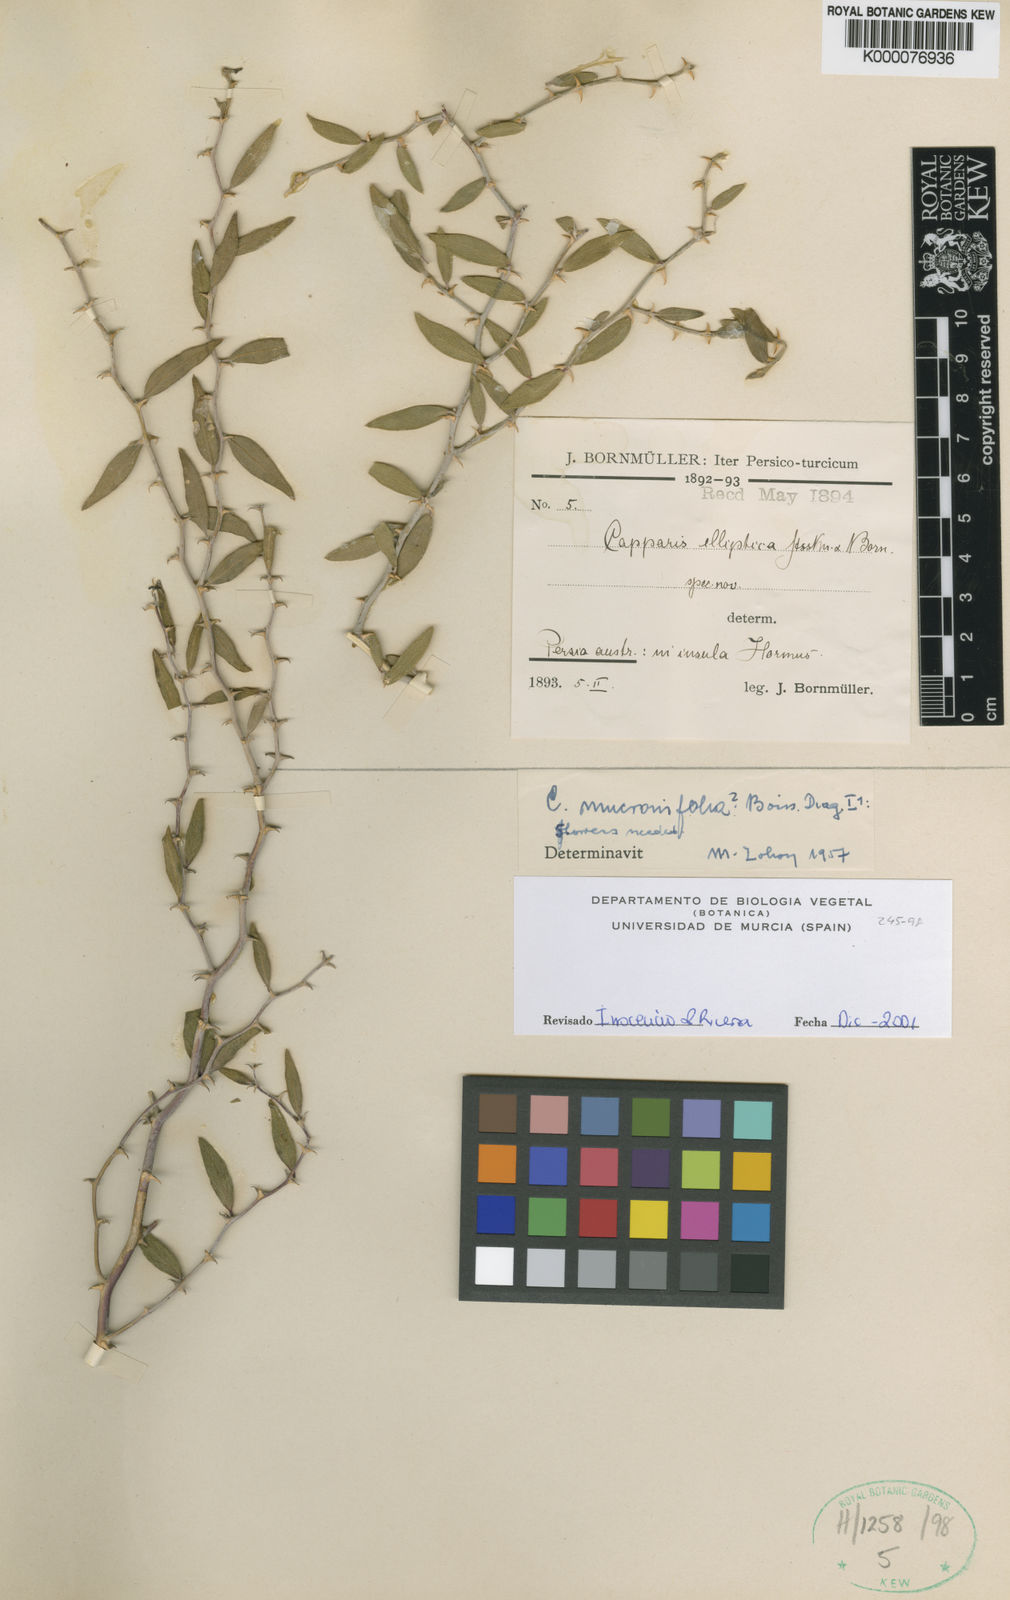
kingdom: Plantae
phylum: Tracheophyta
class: Magnoliopsida
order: Brassicales
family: Capparaceae
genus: Capparis
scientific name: Capparis spinosa
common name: Caper
